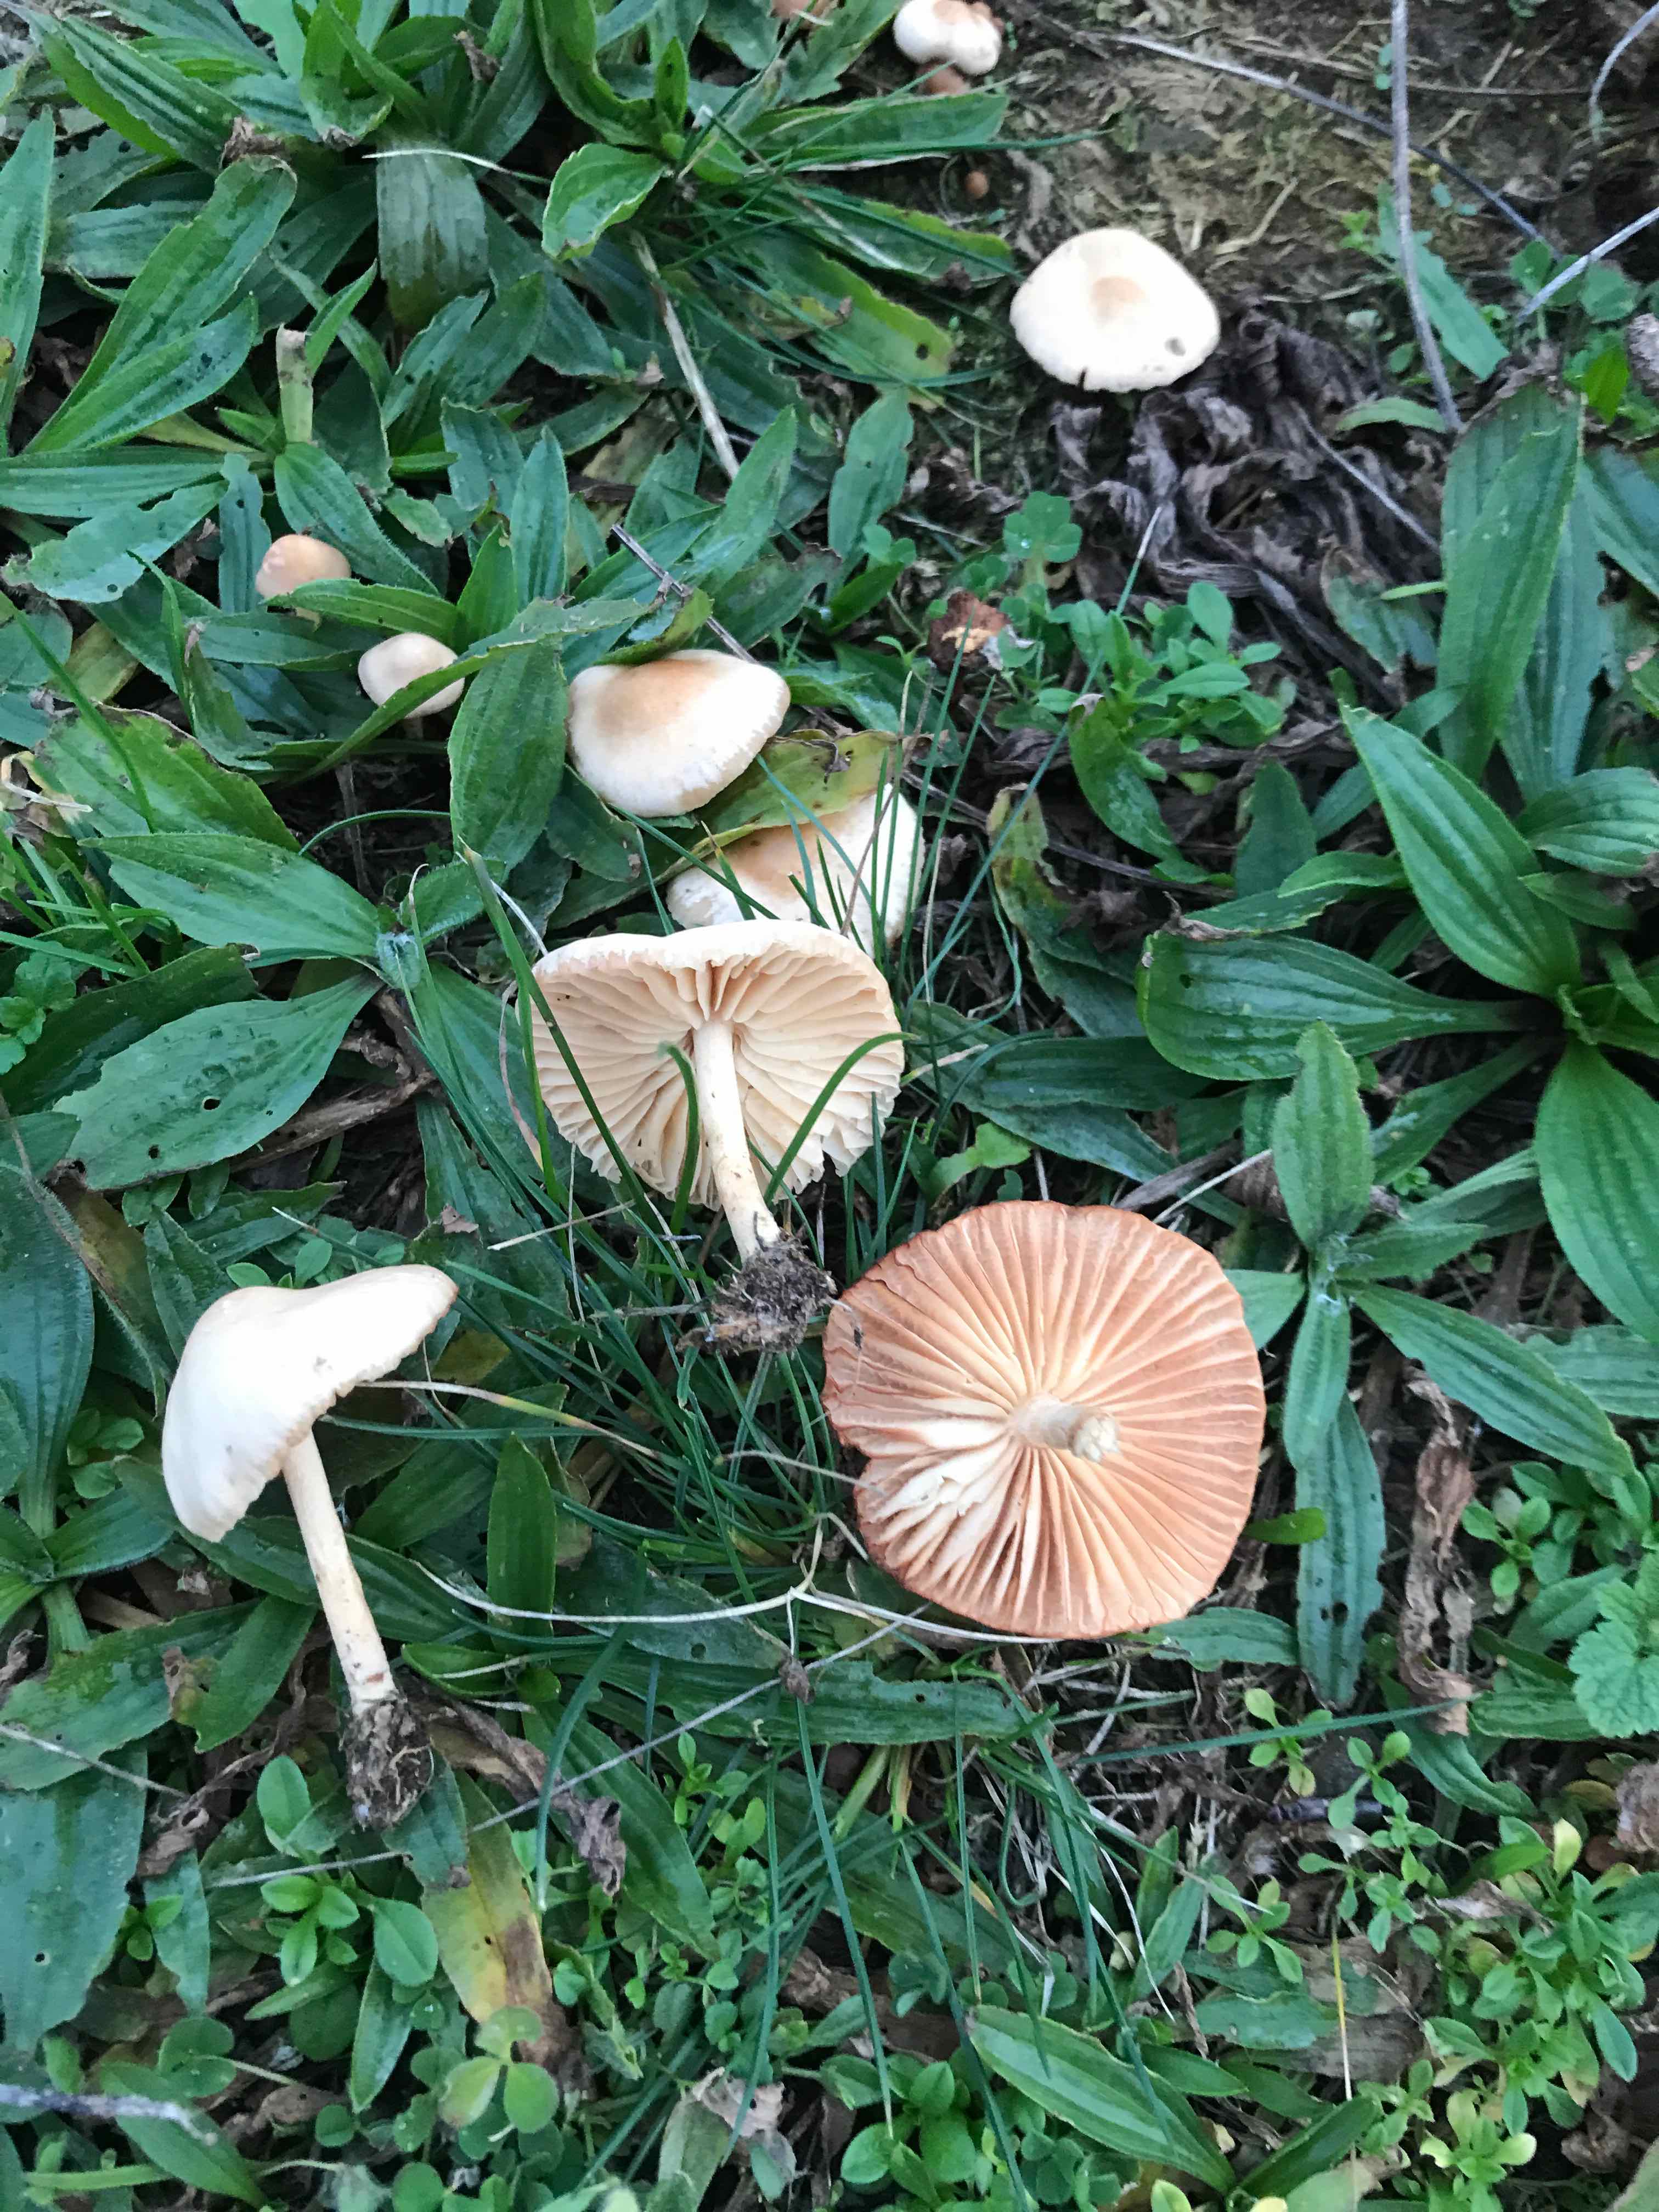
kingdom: Fungi
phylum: Basidiomycota
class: Agaricomycetes
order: Agaricales
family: Marasmiaceae
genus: Marasmius
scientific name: Marasmius oreades
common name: elledans-bruskhat
